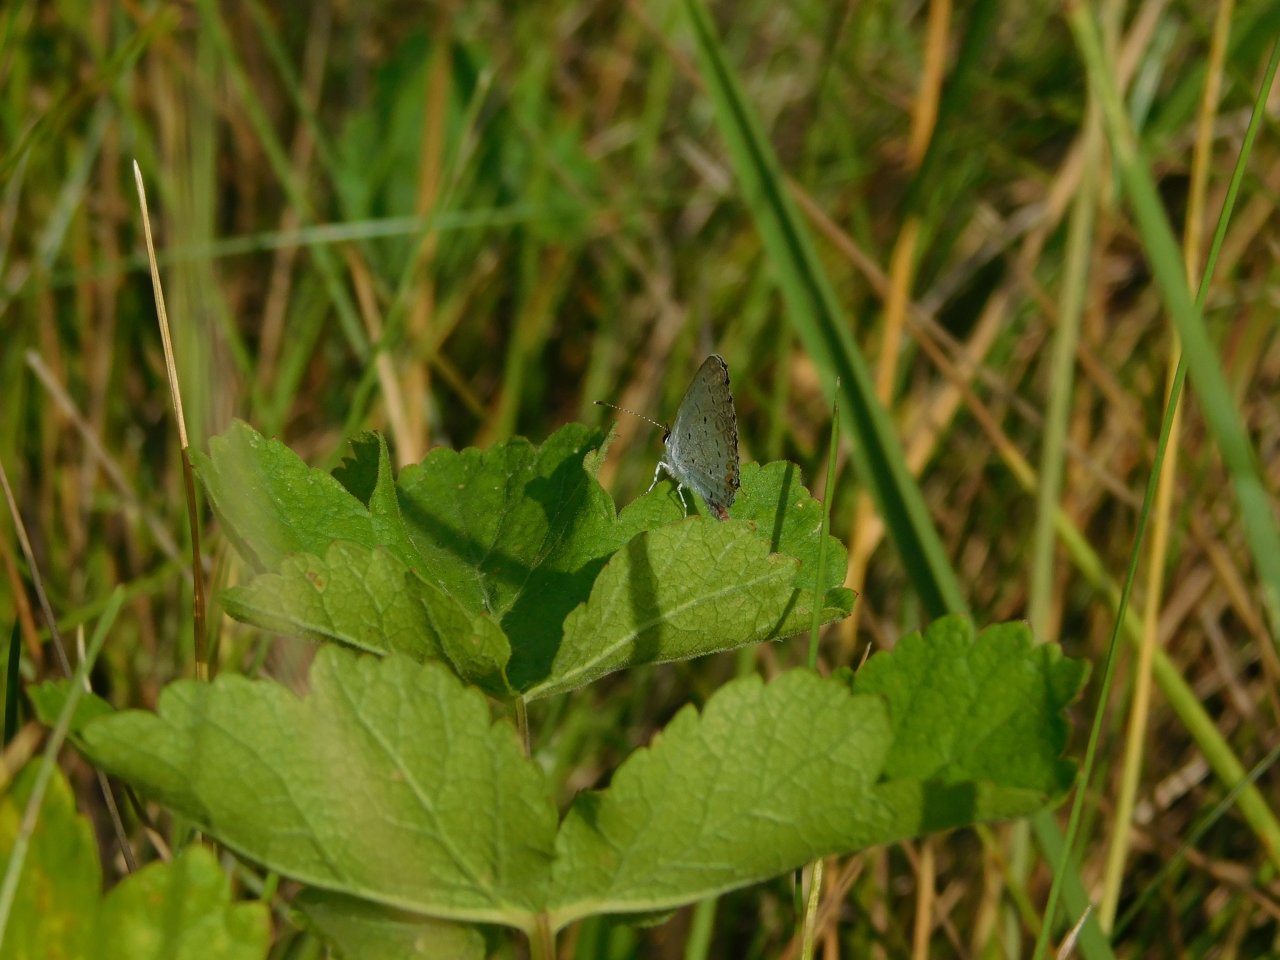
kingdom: Animalia
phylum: Arthropoda
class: Insecta
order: Lepidoptera
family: Lycaenidae
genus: Elkalyce
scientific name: Elkalyce comyntas
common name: Eastern Tailed-Blue
